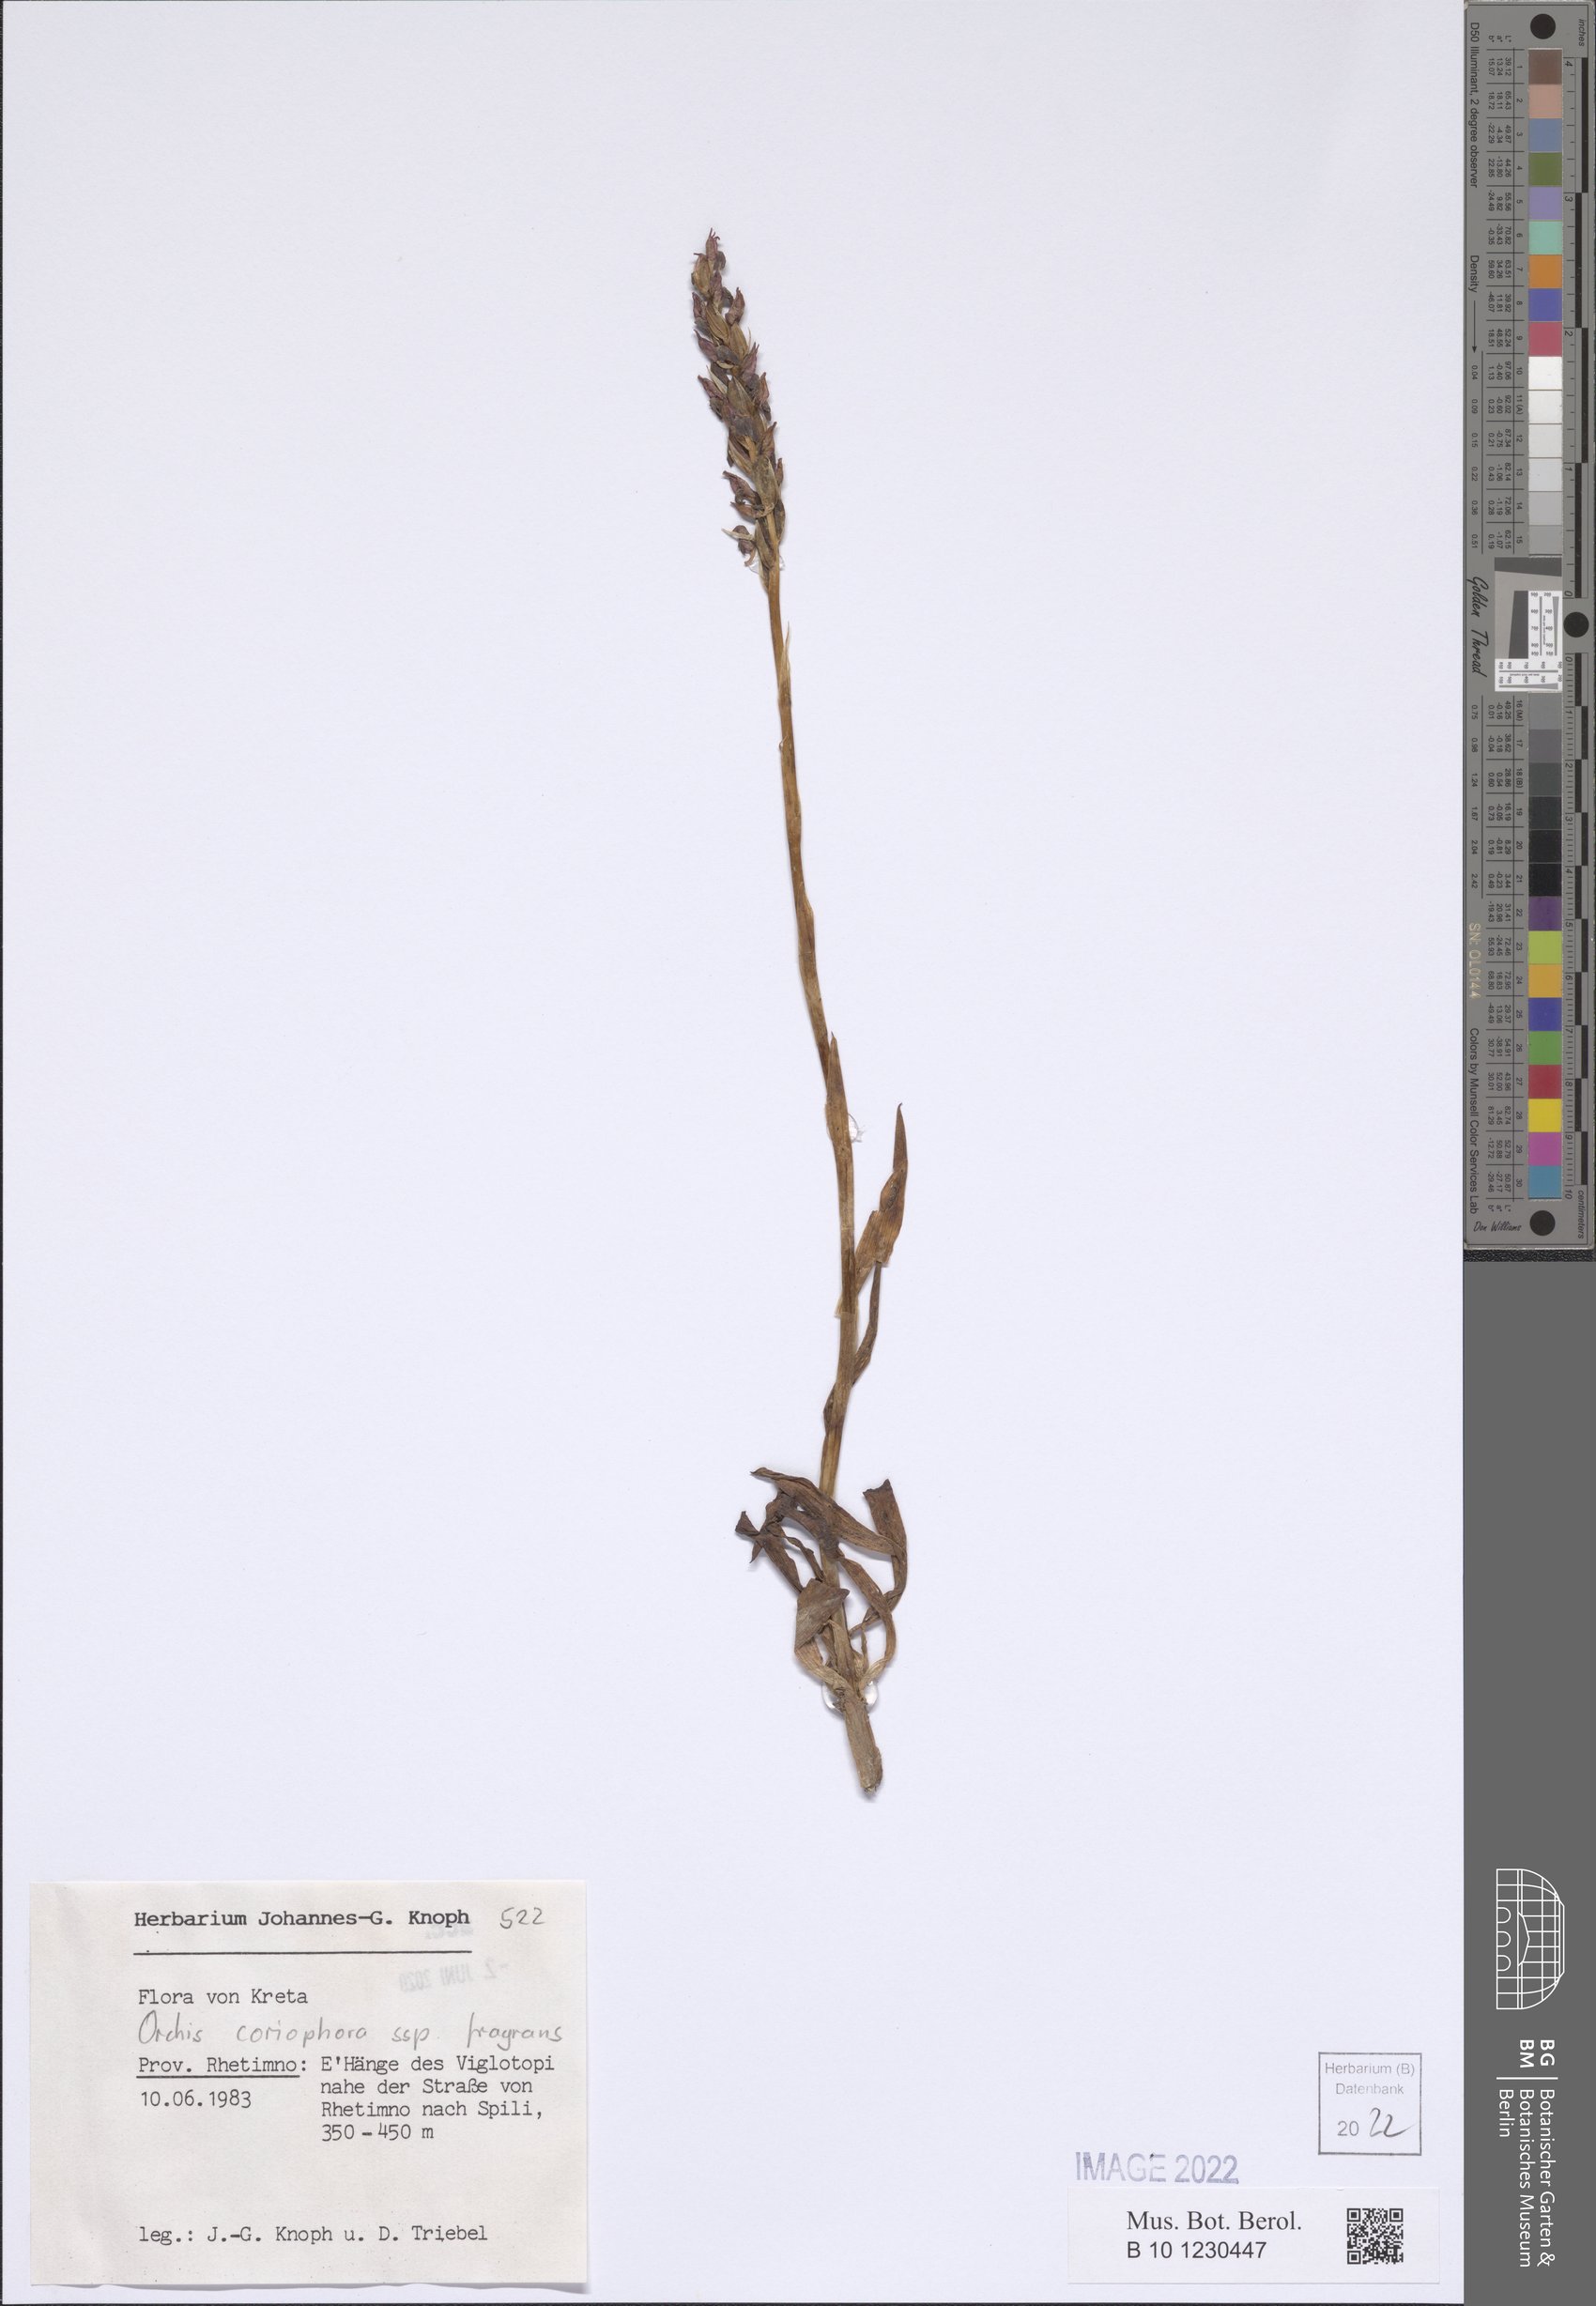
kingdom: Plantae
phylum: Tracheophyta
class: Liliopsida
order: Asparagales
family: Orchidaceae
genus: Anacamptis
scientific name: Anacamptis coriophora
